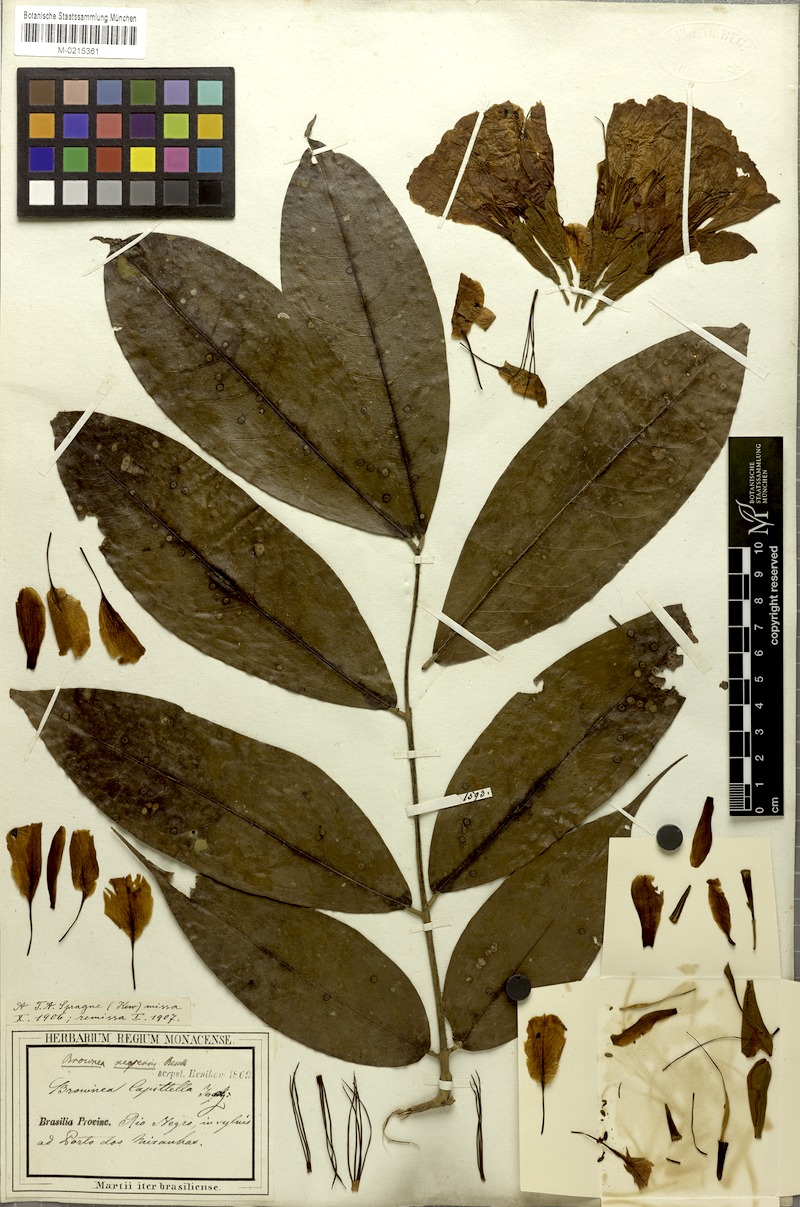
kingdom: Plantae
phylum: Tracheophyta
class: Magnoliopsida
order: Fabales
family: Fabaceae
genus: Brownea
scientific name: Brownea negrensis
